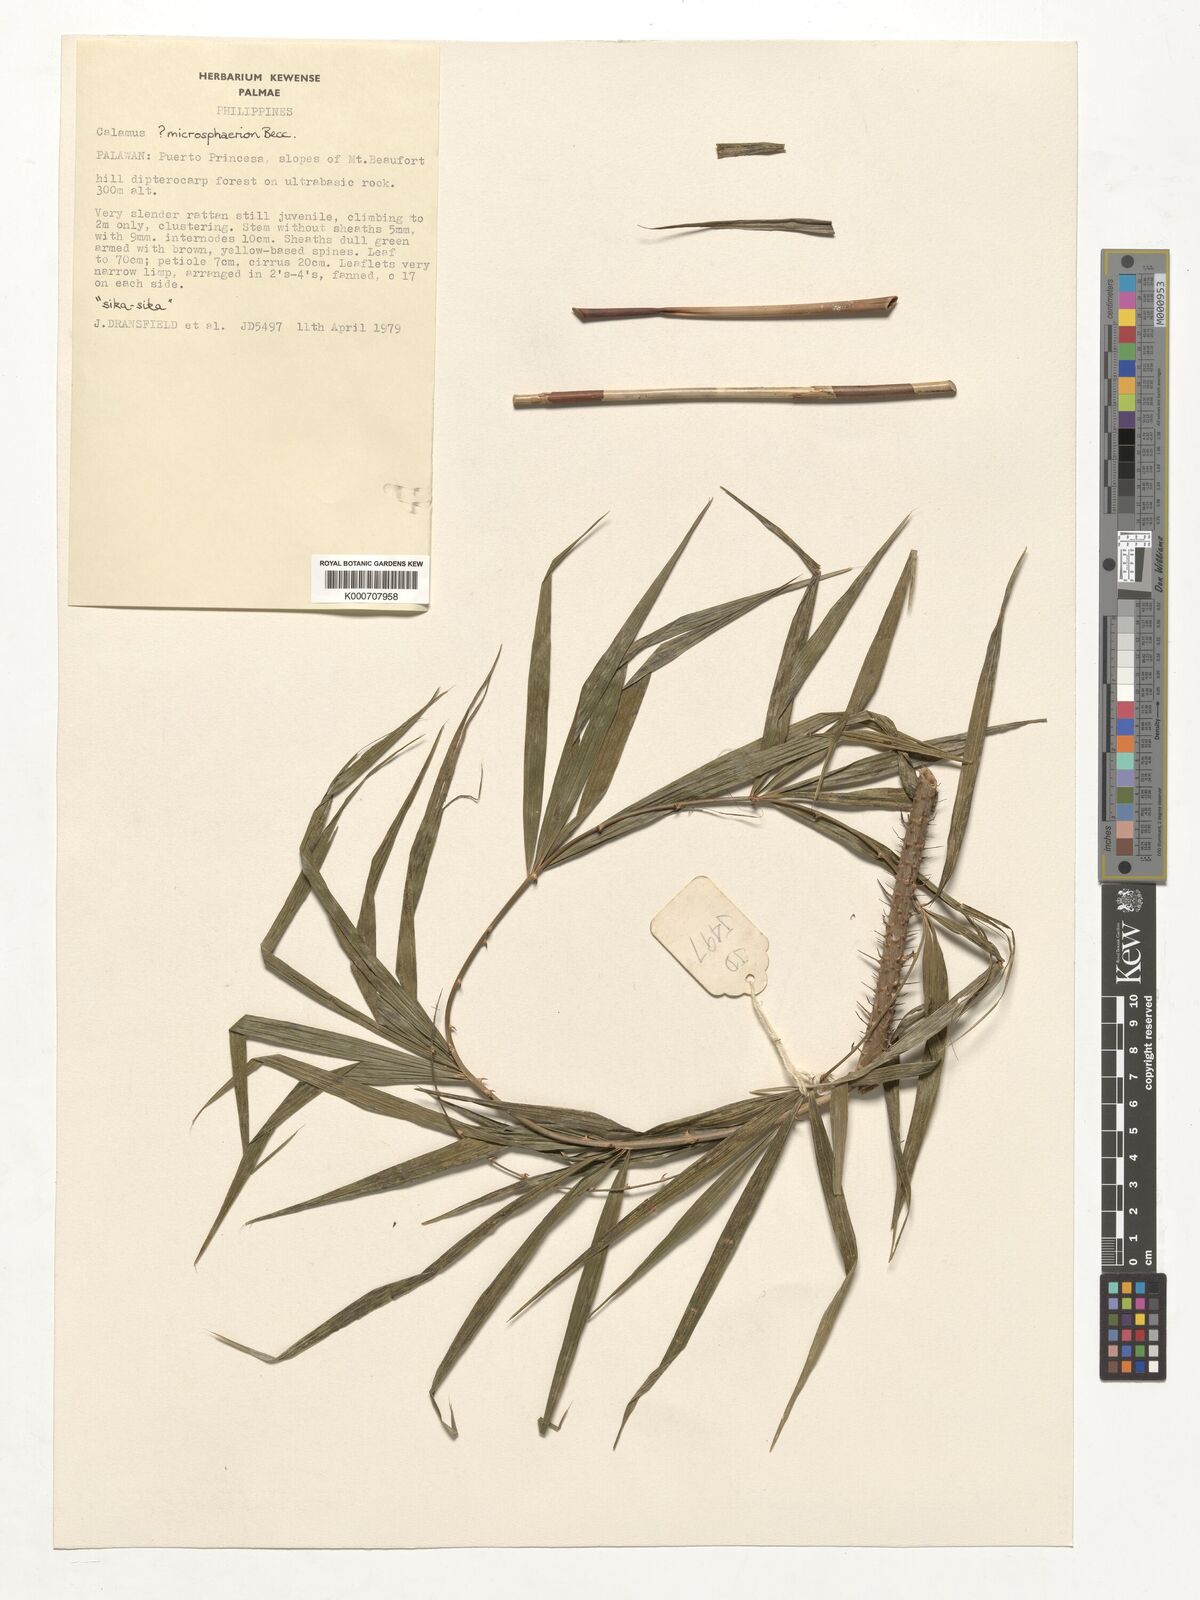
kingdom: Plantae
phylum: Tracheophyta
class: Liliopsida
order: Arecales
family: Arecaceae
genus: Calamus
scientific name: Calamus microsphaerion
